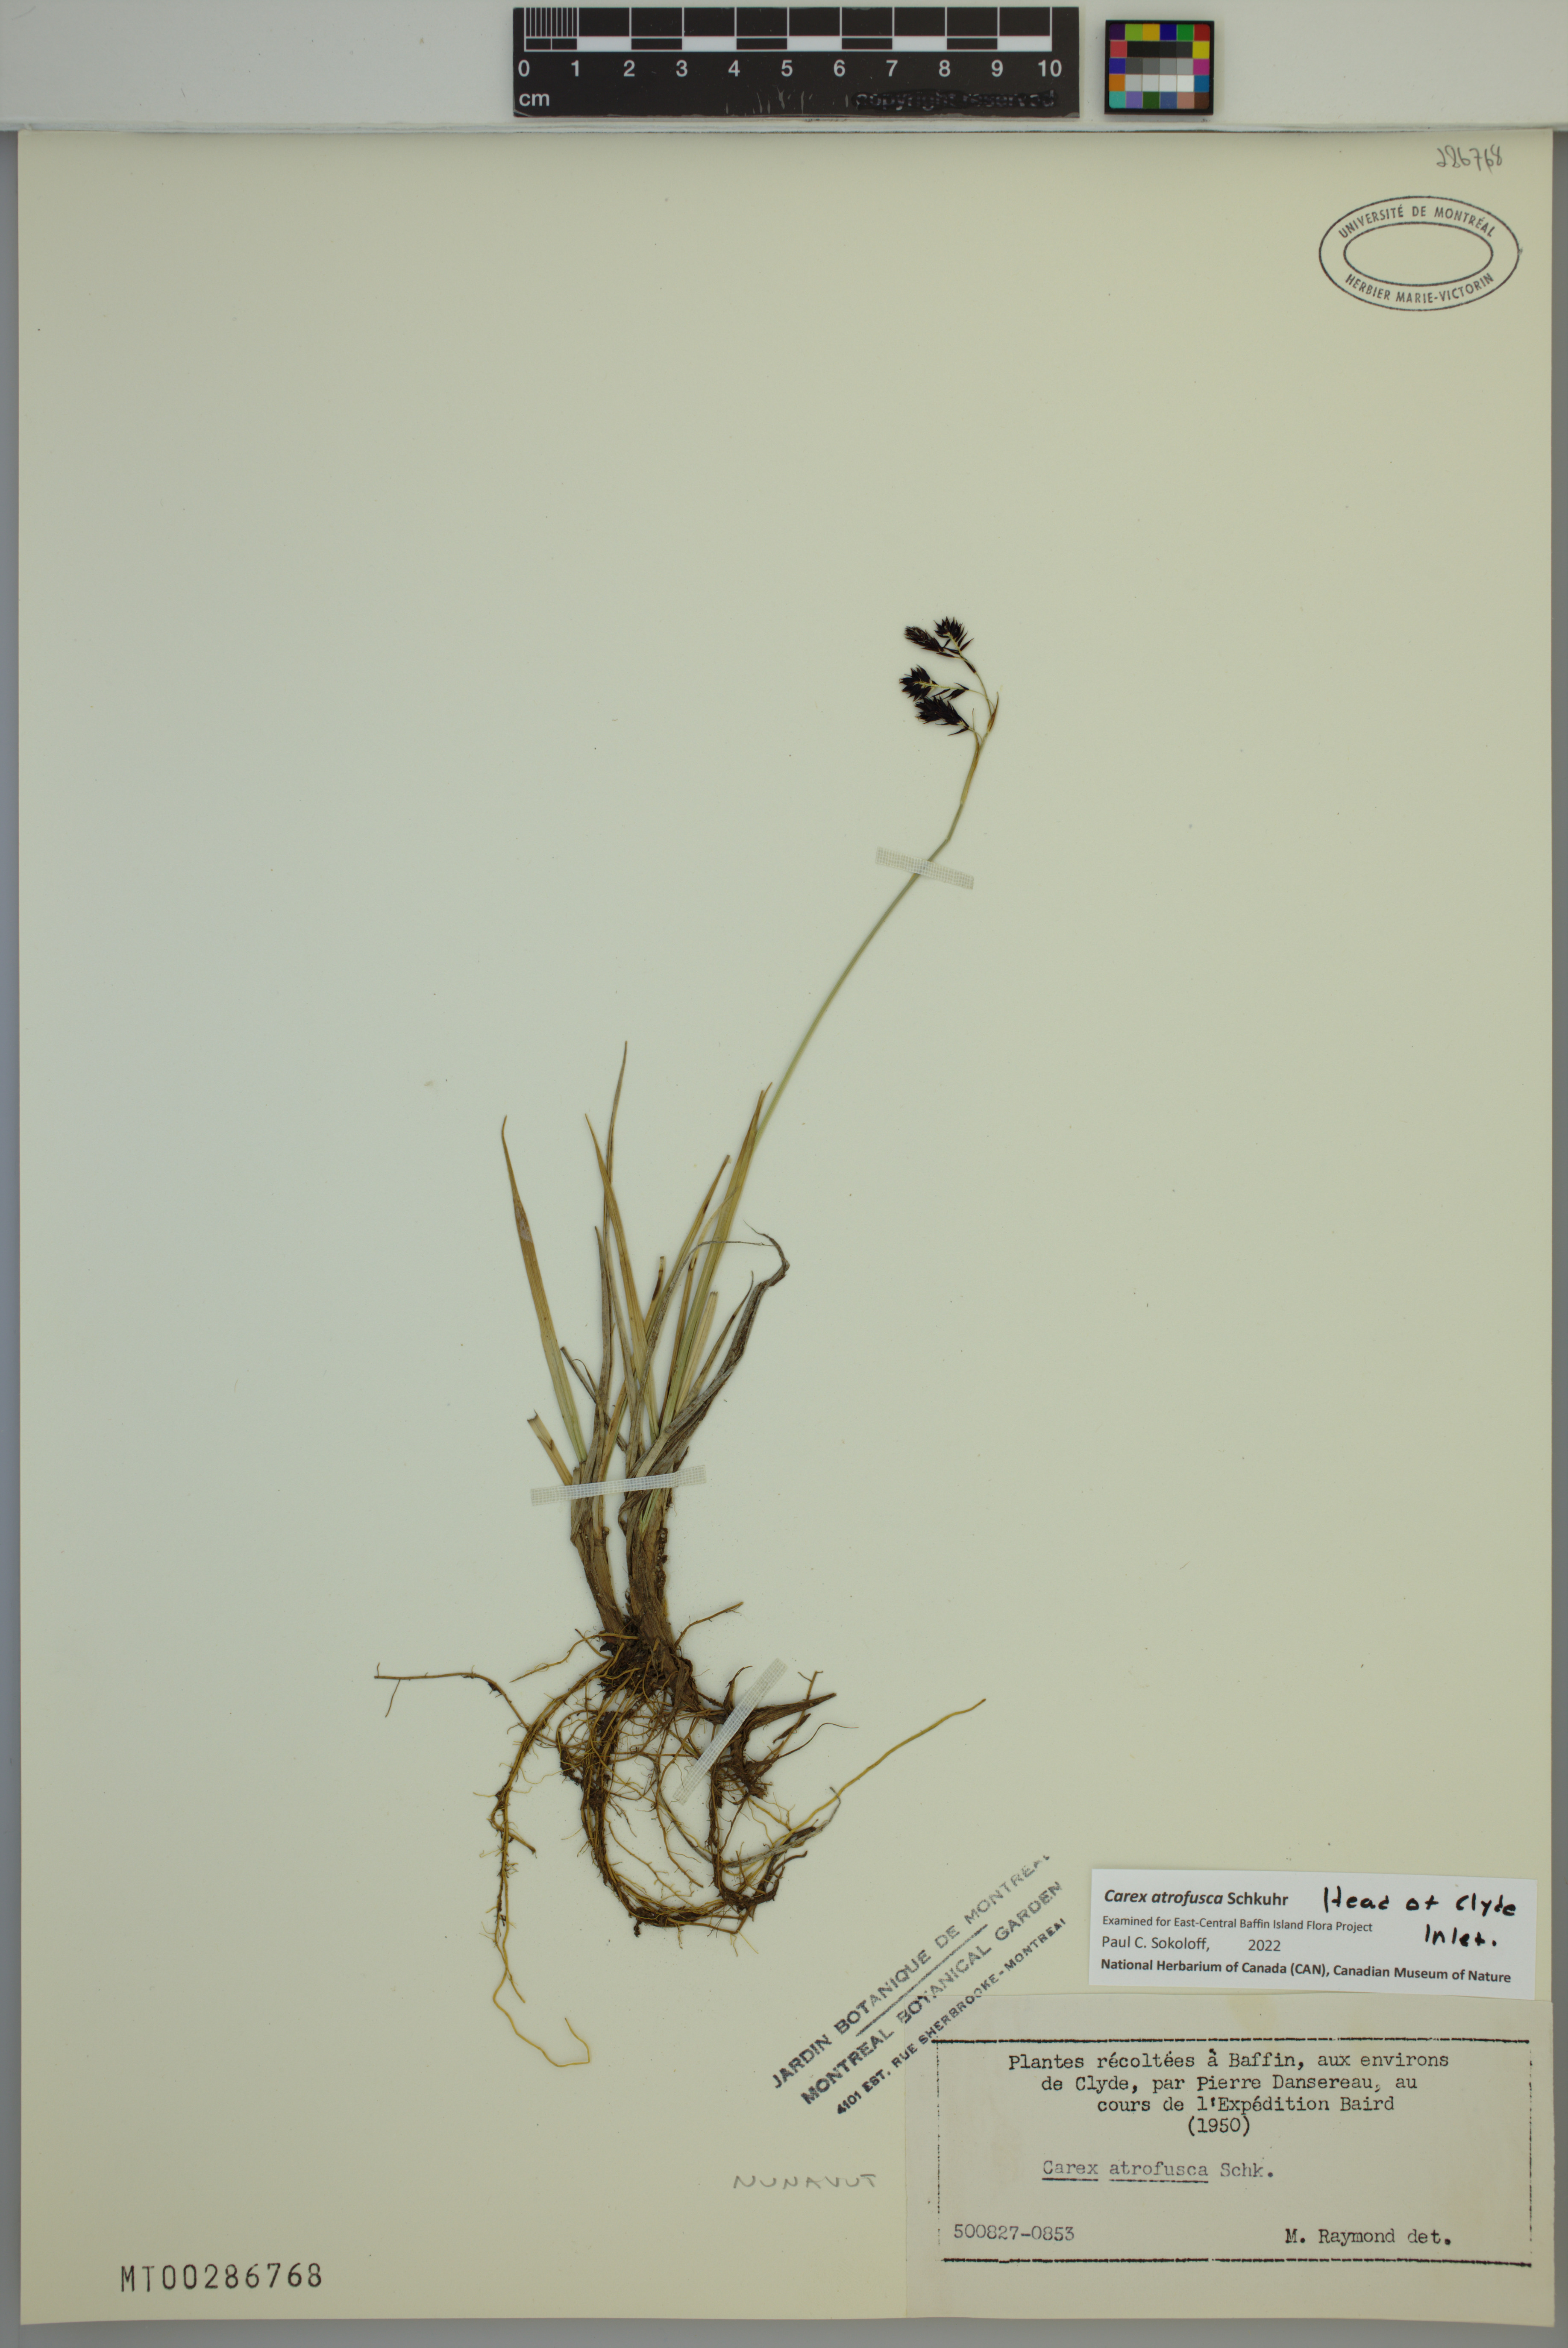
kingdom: Plantae
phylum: Tracheophyta
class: Liliopsida
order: Poales
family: Cyperaceae
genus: Carex
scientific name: Carex atrofusca
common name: Scorched alpine-sedge
